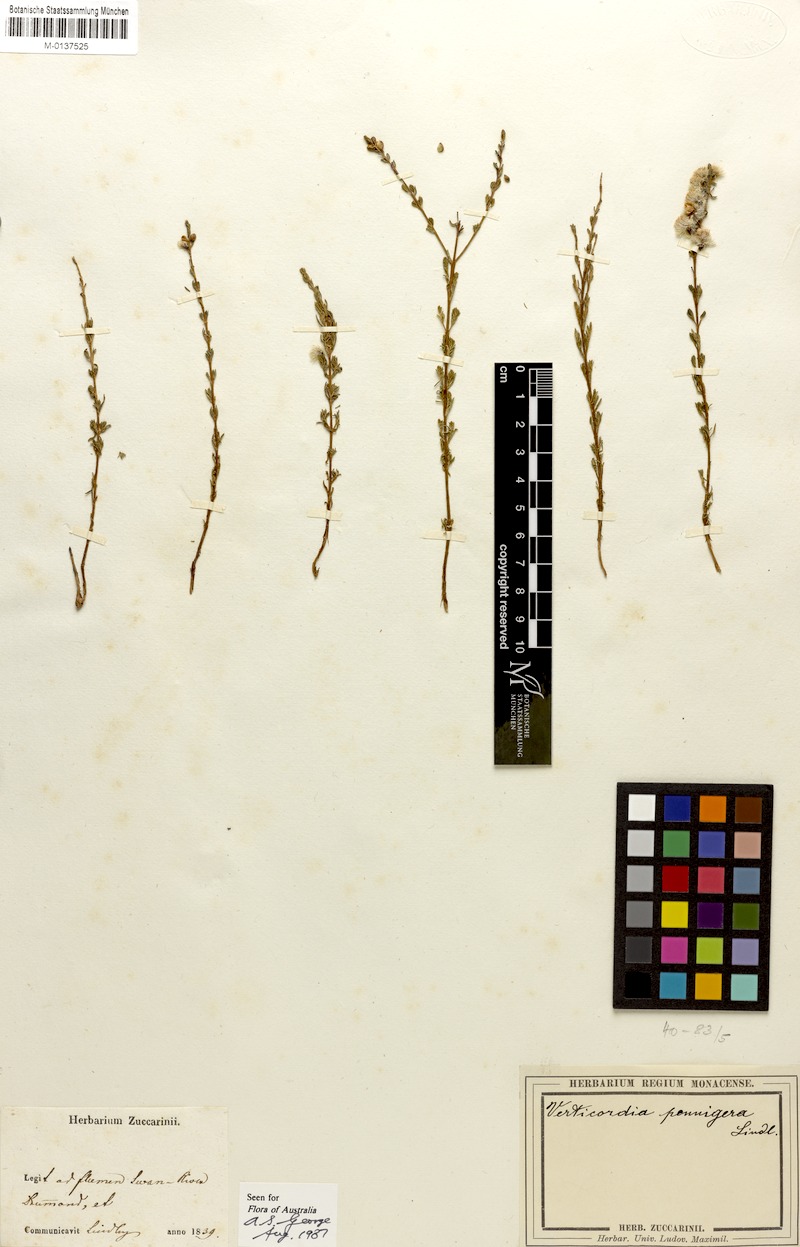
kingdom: Plantae
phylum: Tracheophyta
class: Magnoliopsida
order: Myrtales
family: Myrtaceae
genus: Verticordia
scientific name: Verticordia pennigera
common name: Native-tea
